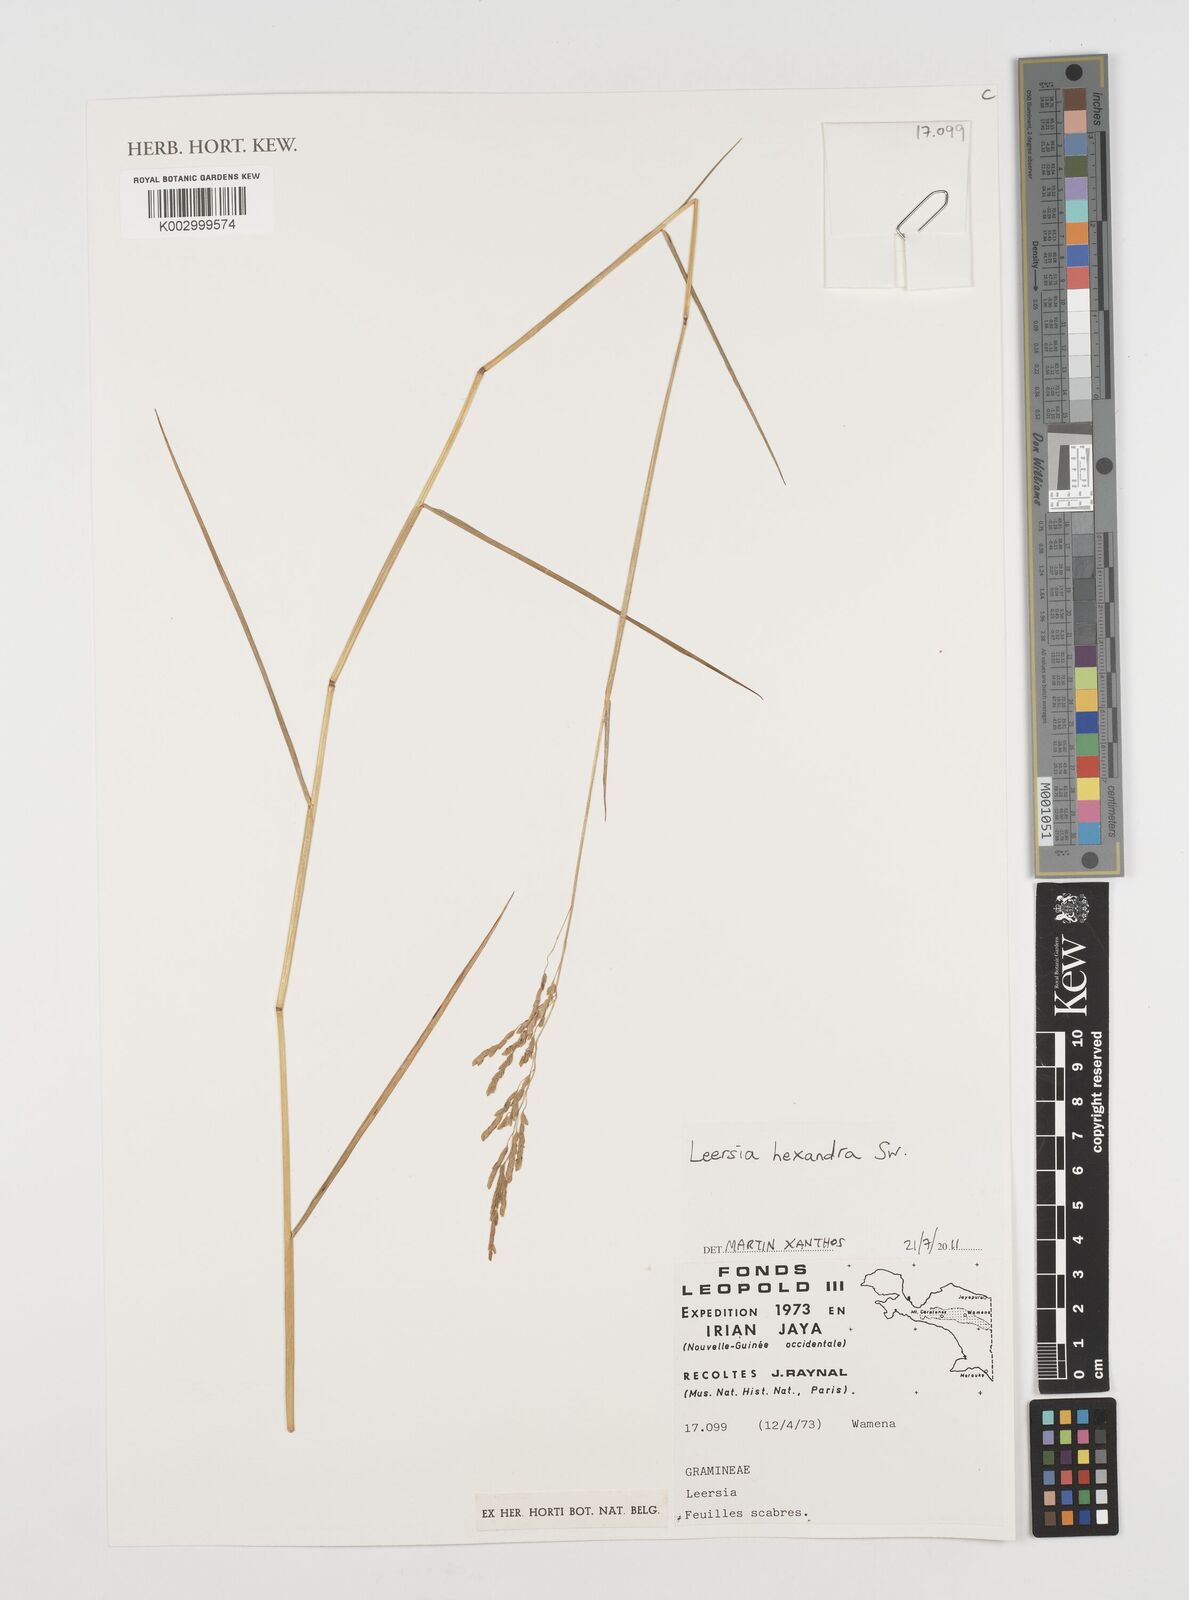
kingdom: Plantae
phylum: Tracheophyta
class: Liliopsida
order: Poales
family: Poaceae
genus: Leersia
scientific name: Leersia hexandra
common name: Southern cut grass
